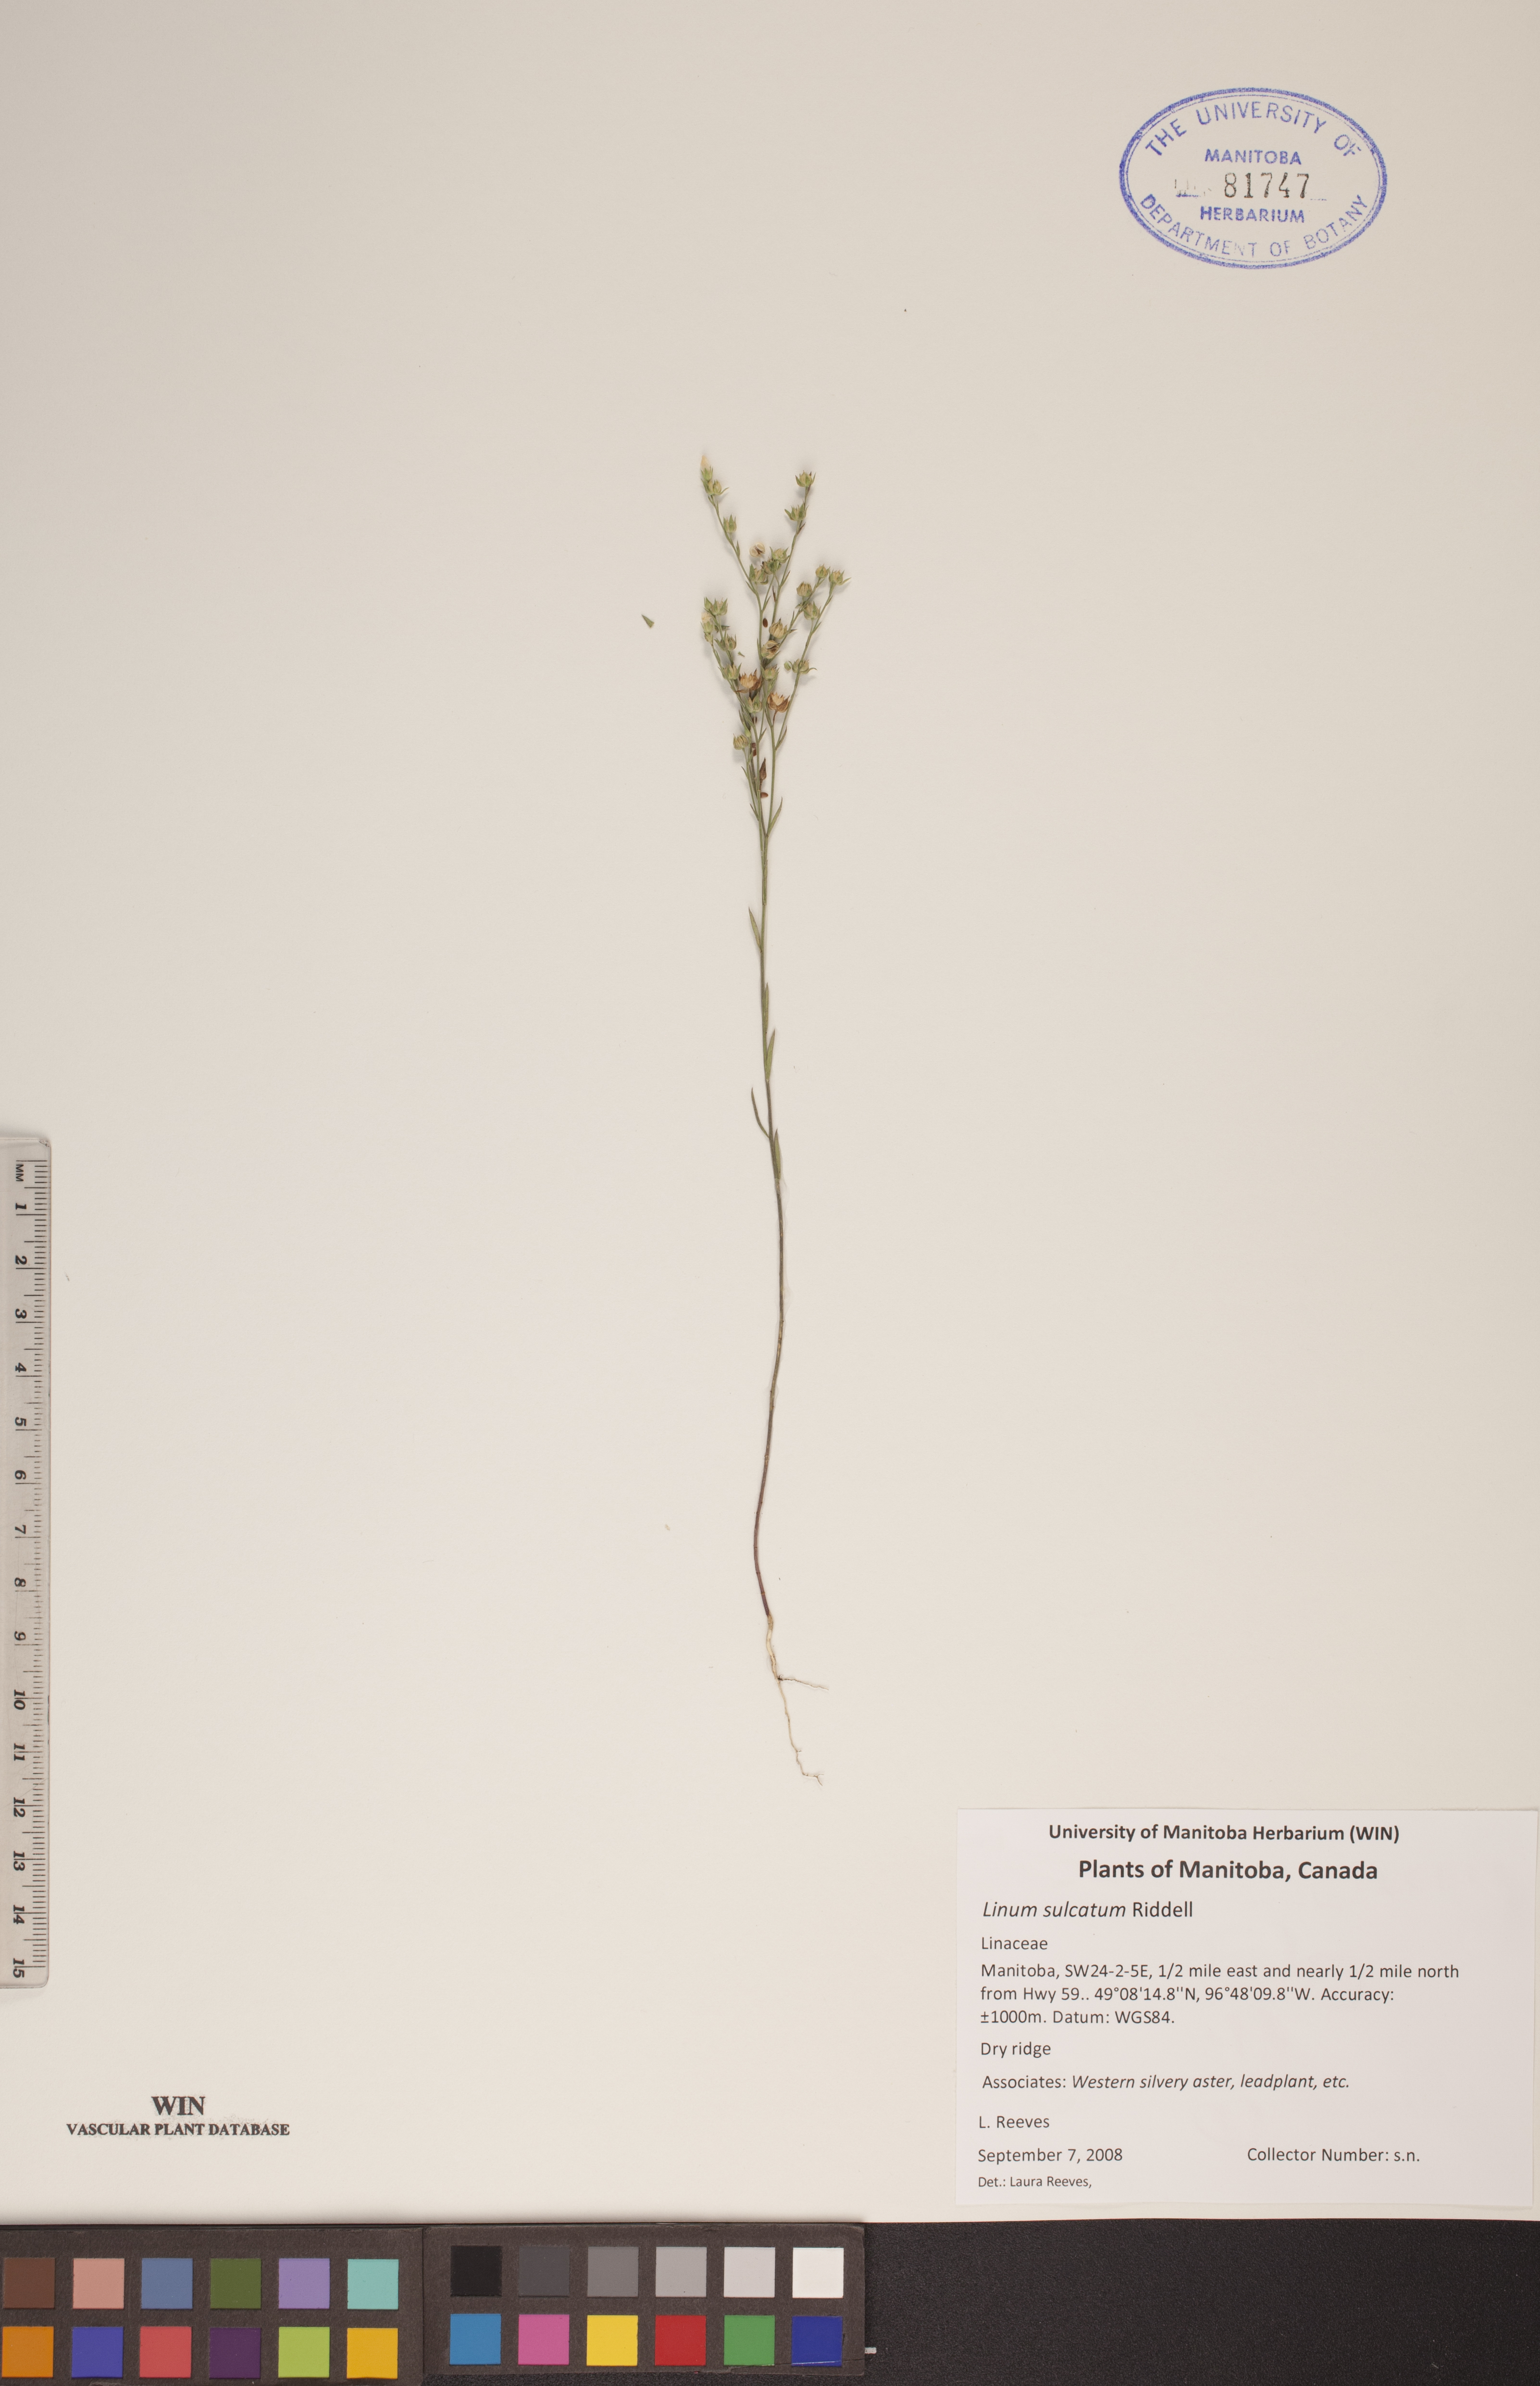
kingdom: Plantae
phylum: Tracheophyta
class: Magnoliopsida
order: Malpighiales
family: Linaceae
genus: Linum
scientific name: Linum sulcatum
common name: Grooved flax
